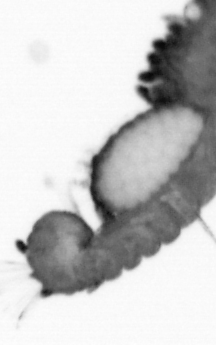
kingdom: Animalia
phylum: Annelida
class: Polychaeta
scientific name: Polychaeta
